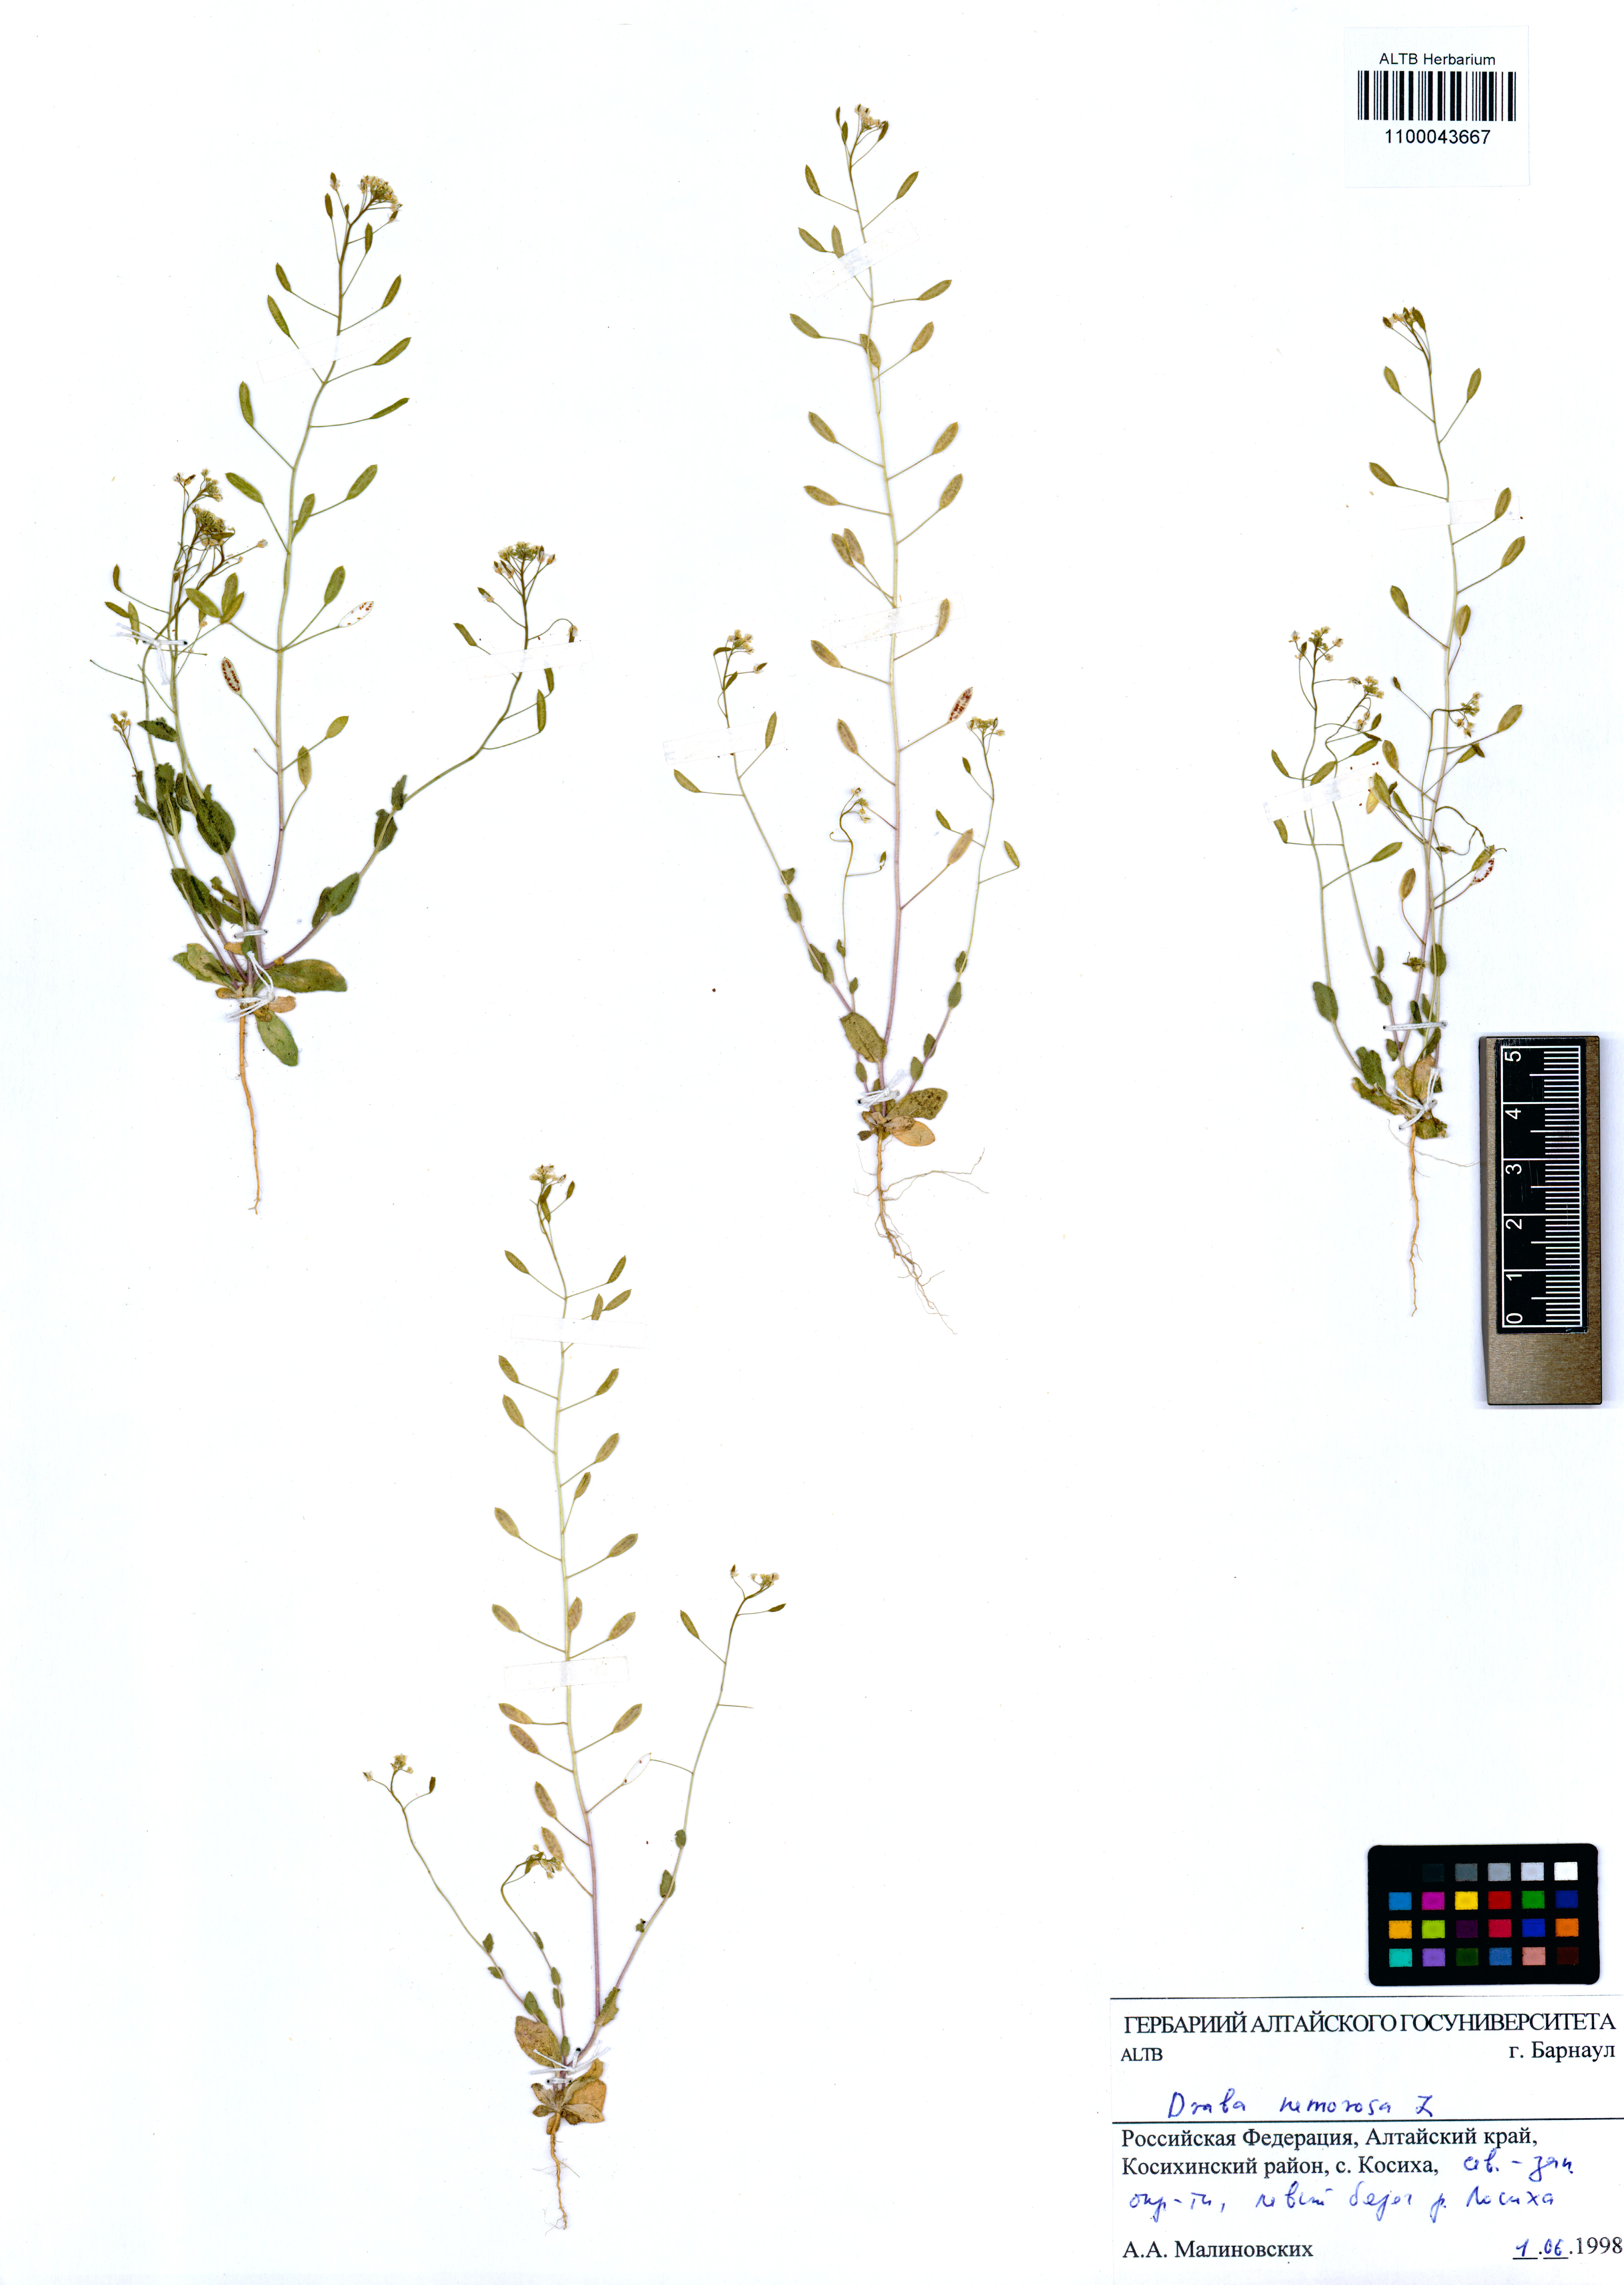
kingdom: Plantae
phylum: Tracheophyta
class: Magnoliopsida
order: Brassicales
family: Brassicaceae
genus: Draba
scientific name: Draba nemorosa
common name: Wood whitlow-grass
